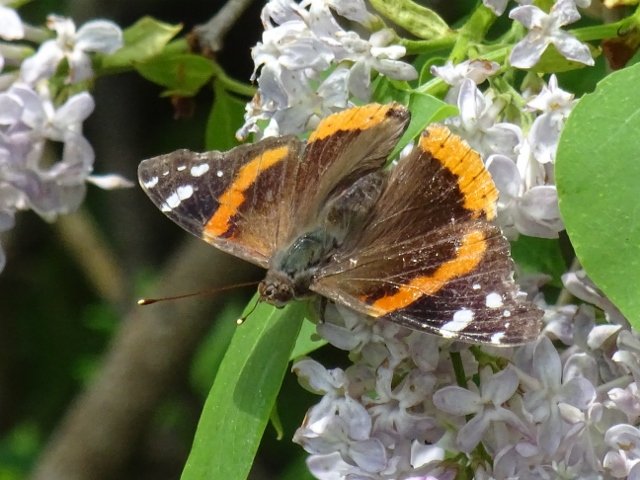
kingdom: Animalia
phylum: Arthropoda
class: Insecta
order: Lepidoptera
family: Nymphalidae
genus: Vanessa
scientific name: Vanessa atalanta
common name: Red Admiral
